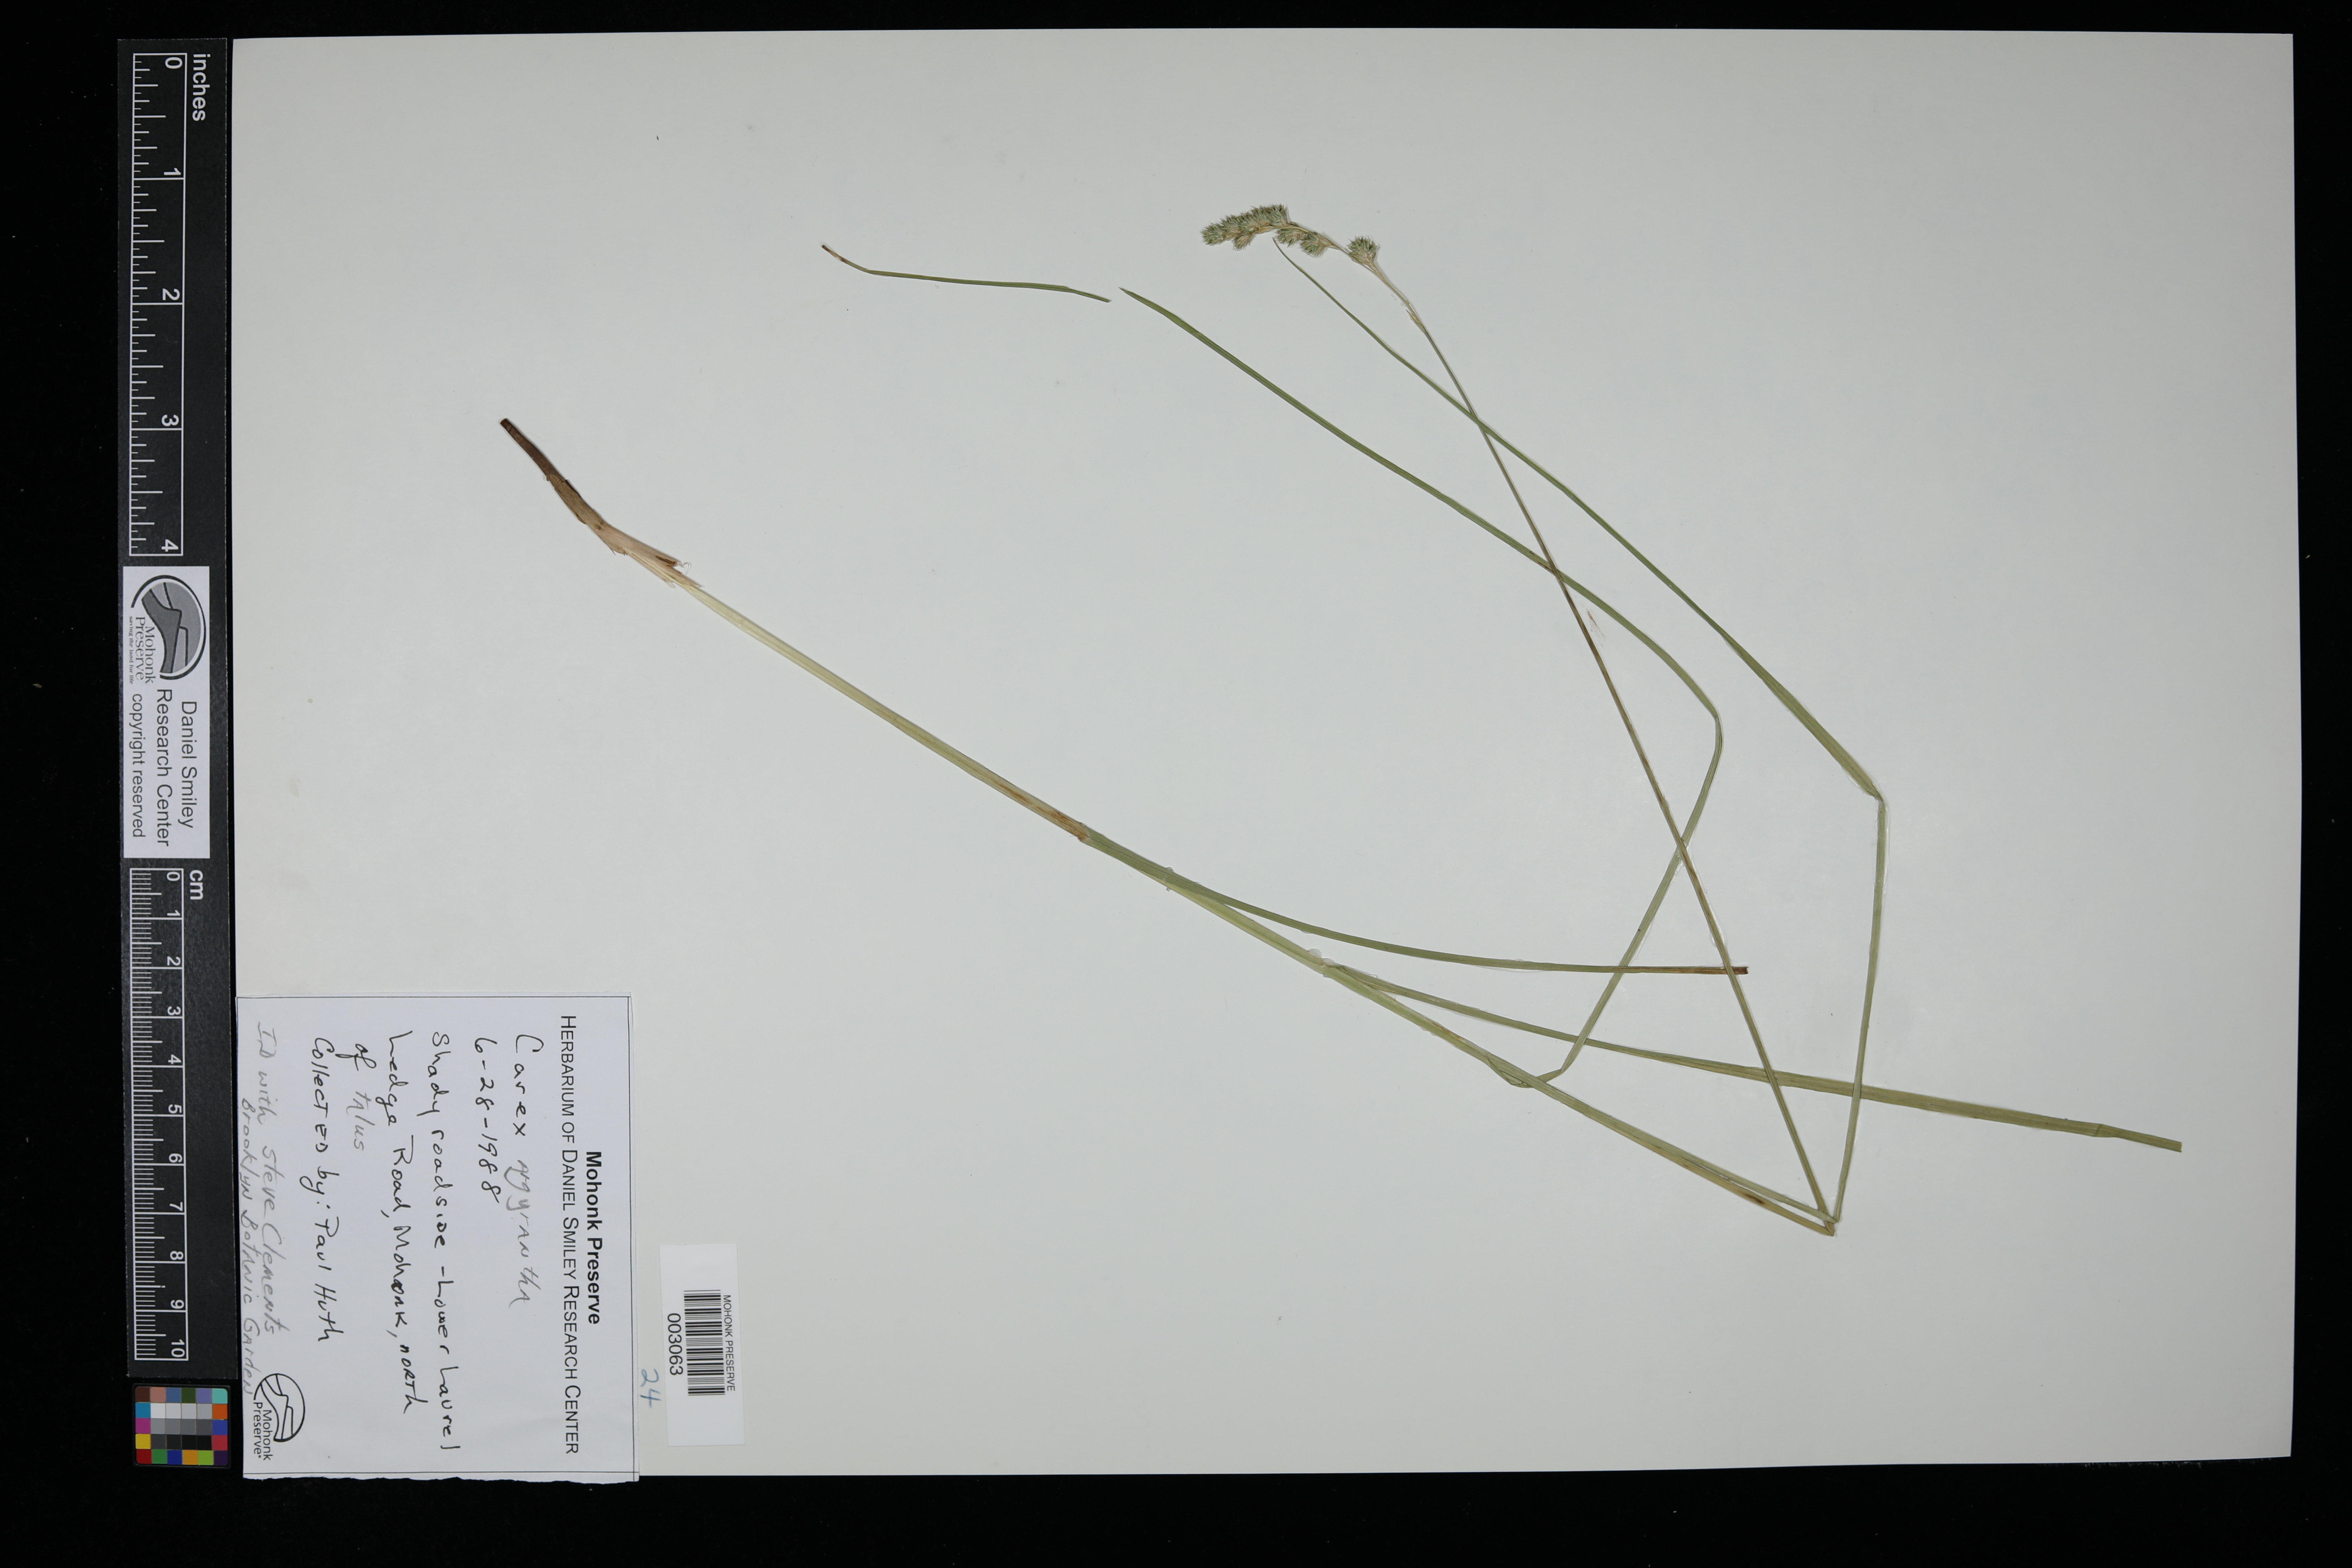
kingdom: Plantae
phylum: Tracheophyta
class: Liliopsida
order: Poales
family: Cyperaceae
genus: Carex
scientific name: Carex argyrantha
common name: Silvery-flowered sedge
